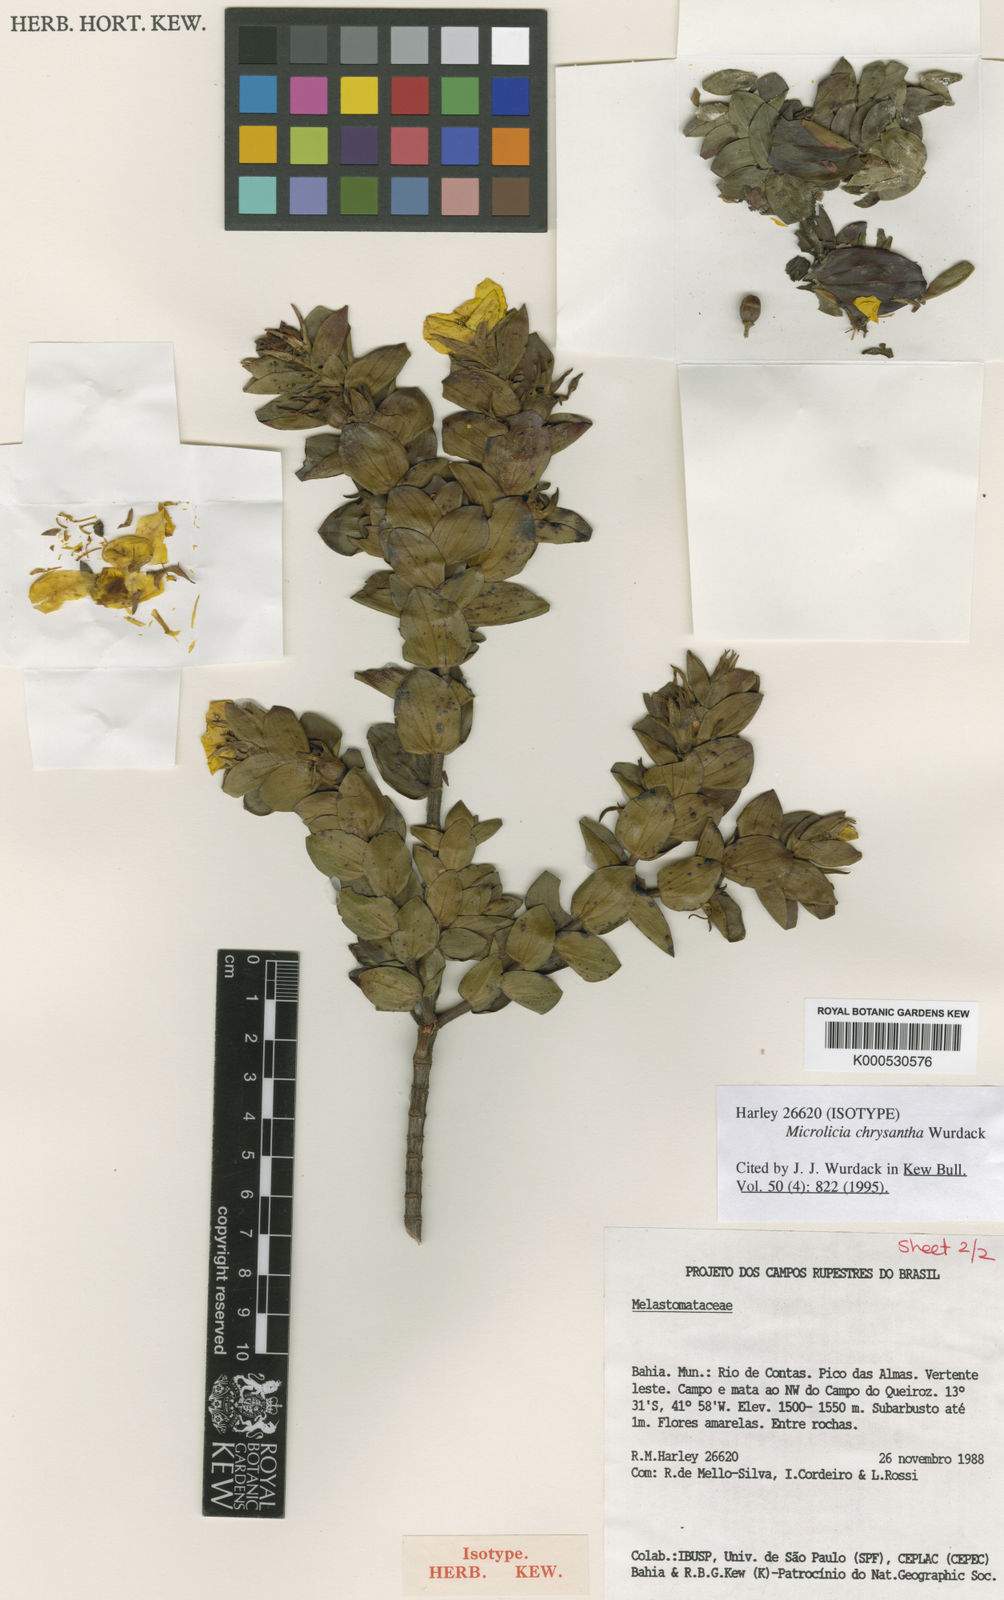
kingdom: Plantae
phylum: Tracheophyta
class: Magnoliopsida
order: Myrtales
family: Melastomataceae
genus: Microlicia
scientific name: Microlicia chrysantha
